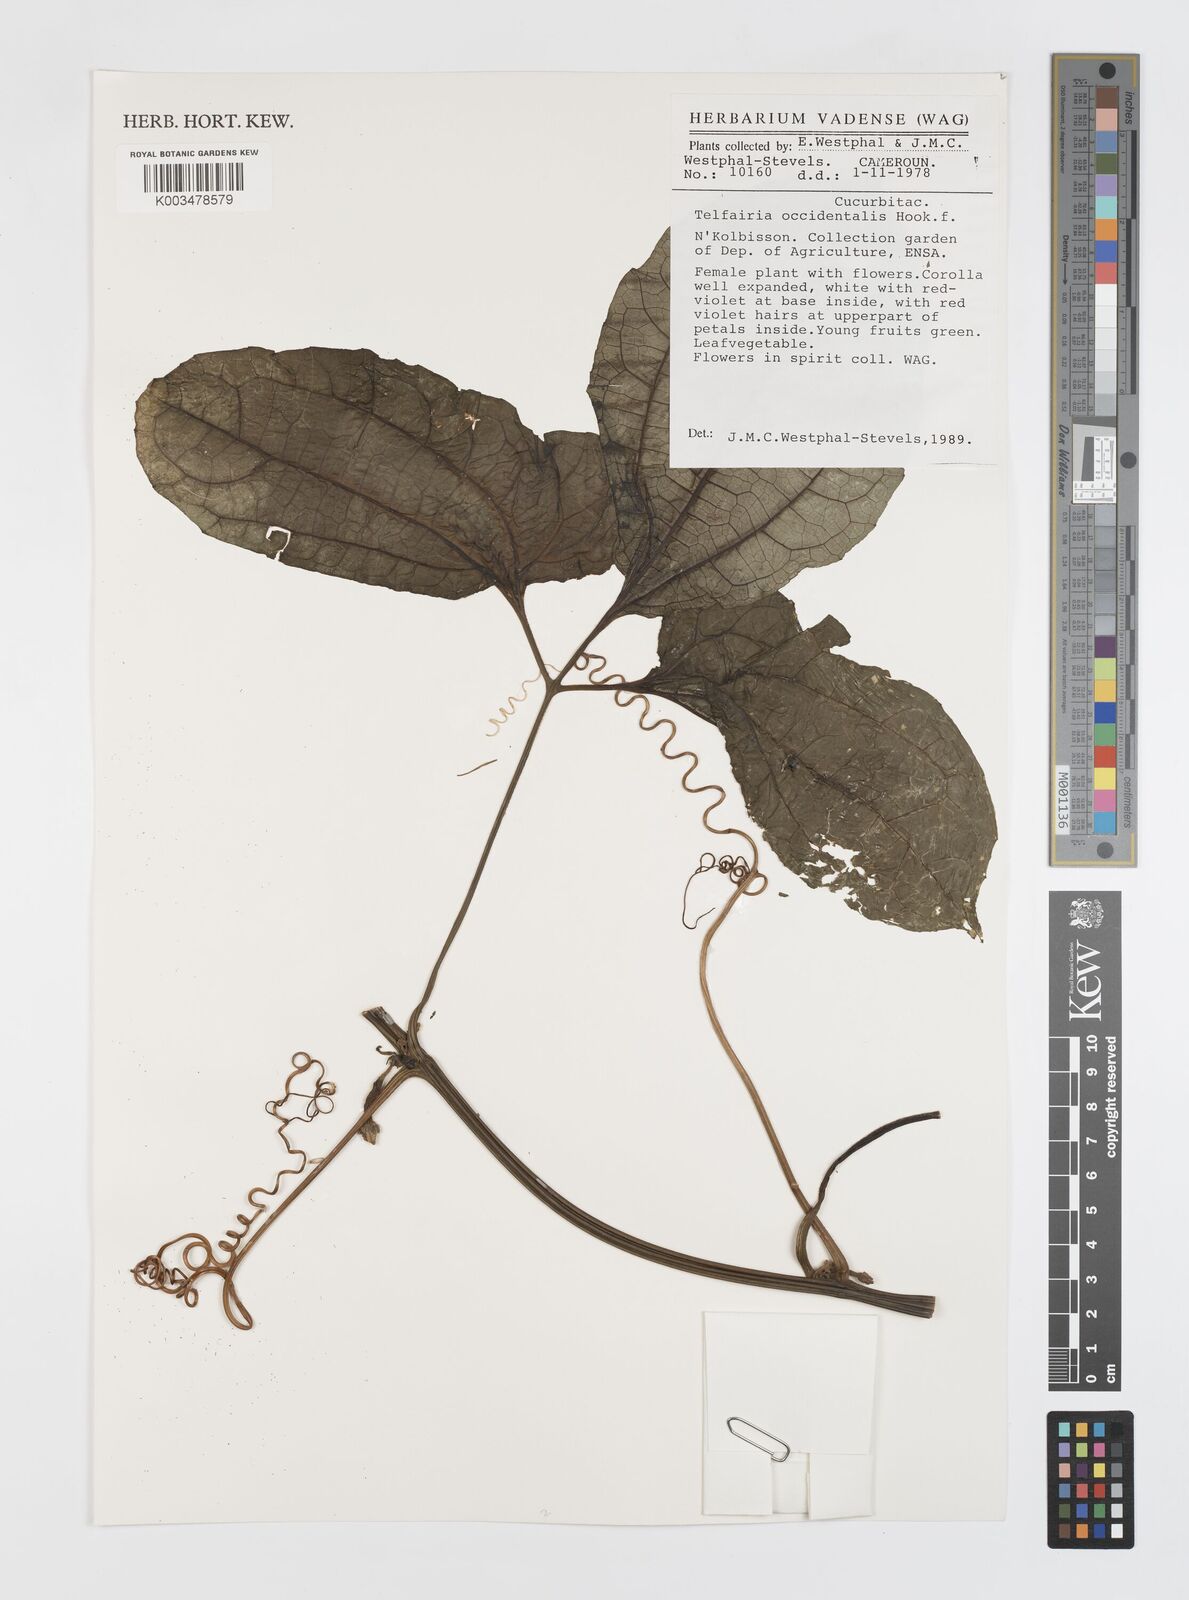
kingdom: Plantae
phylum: Tracheophyta
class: Magnoliopsida
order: Cucurbitales
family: Cucurbitaceae
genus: Telfairia
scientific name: Telfairia occidentalis
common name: Oysternut
